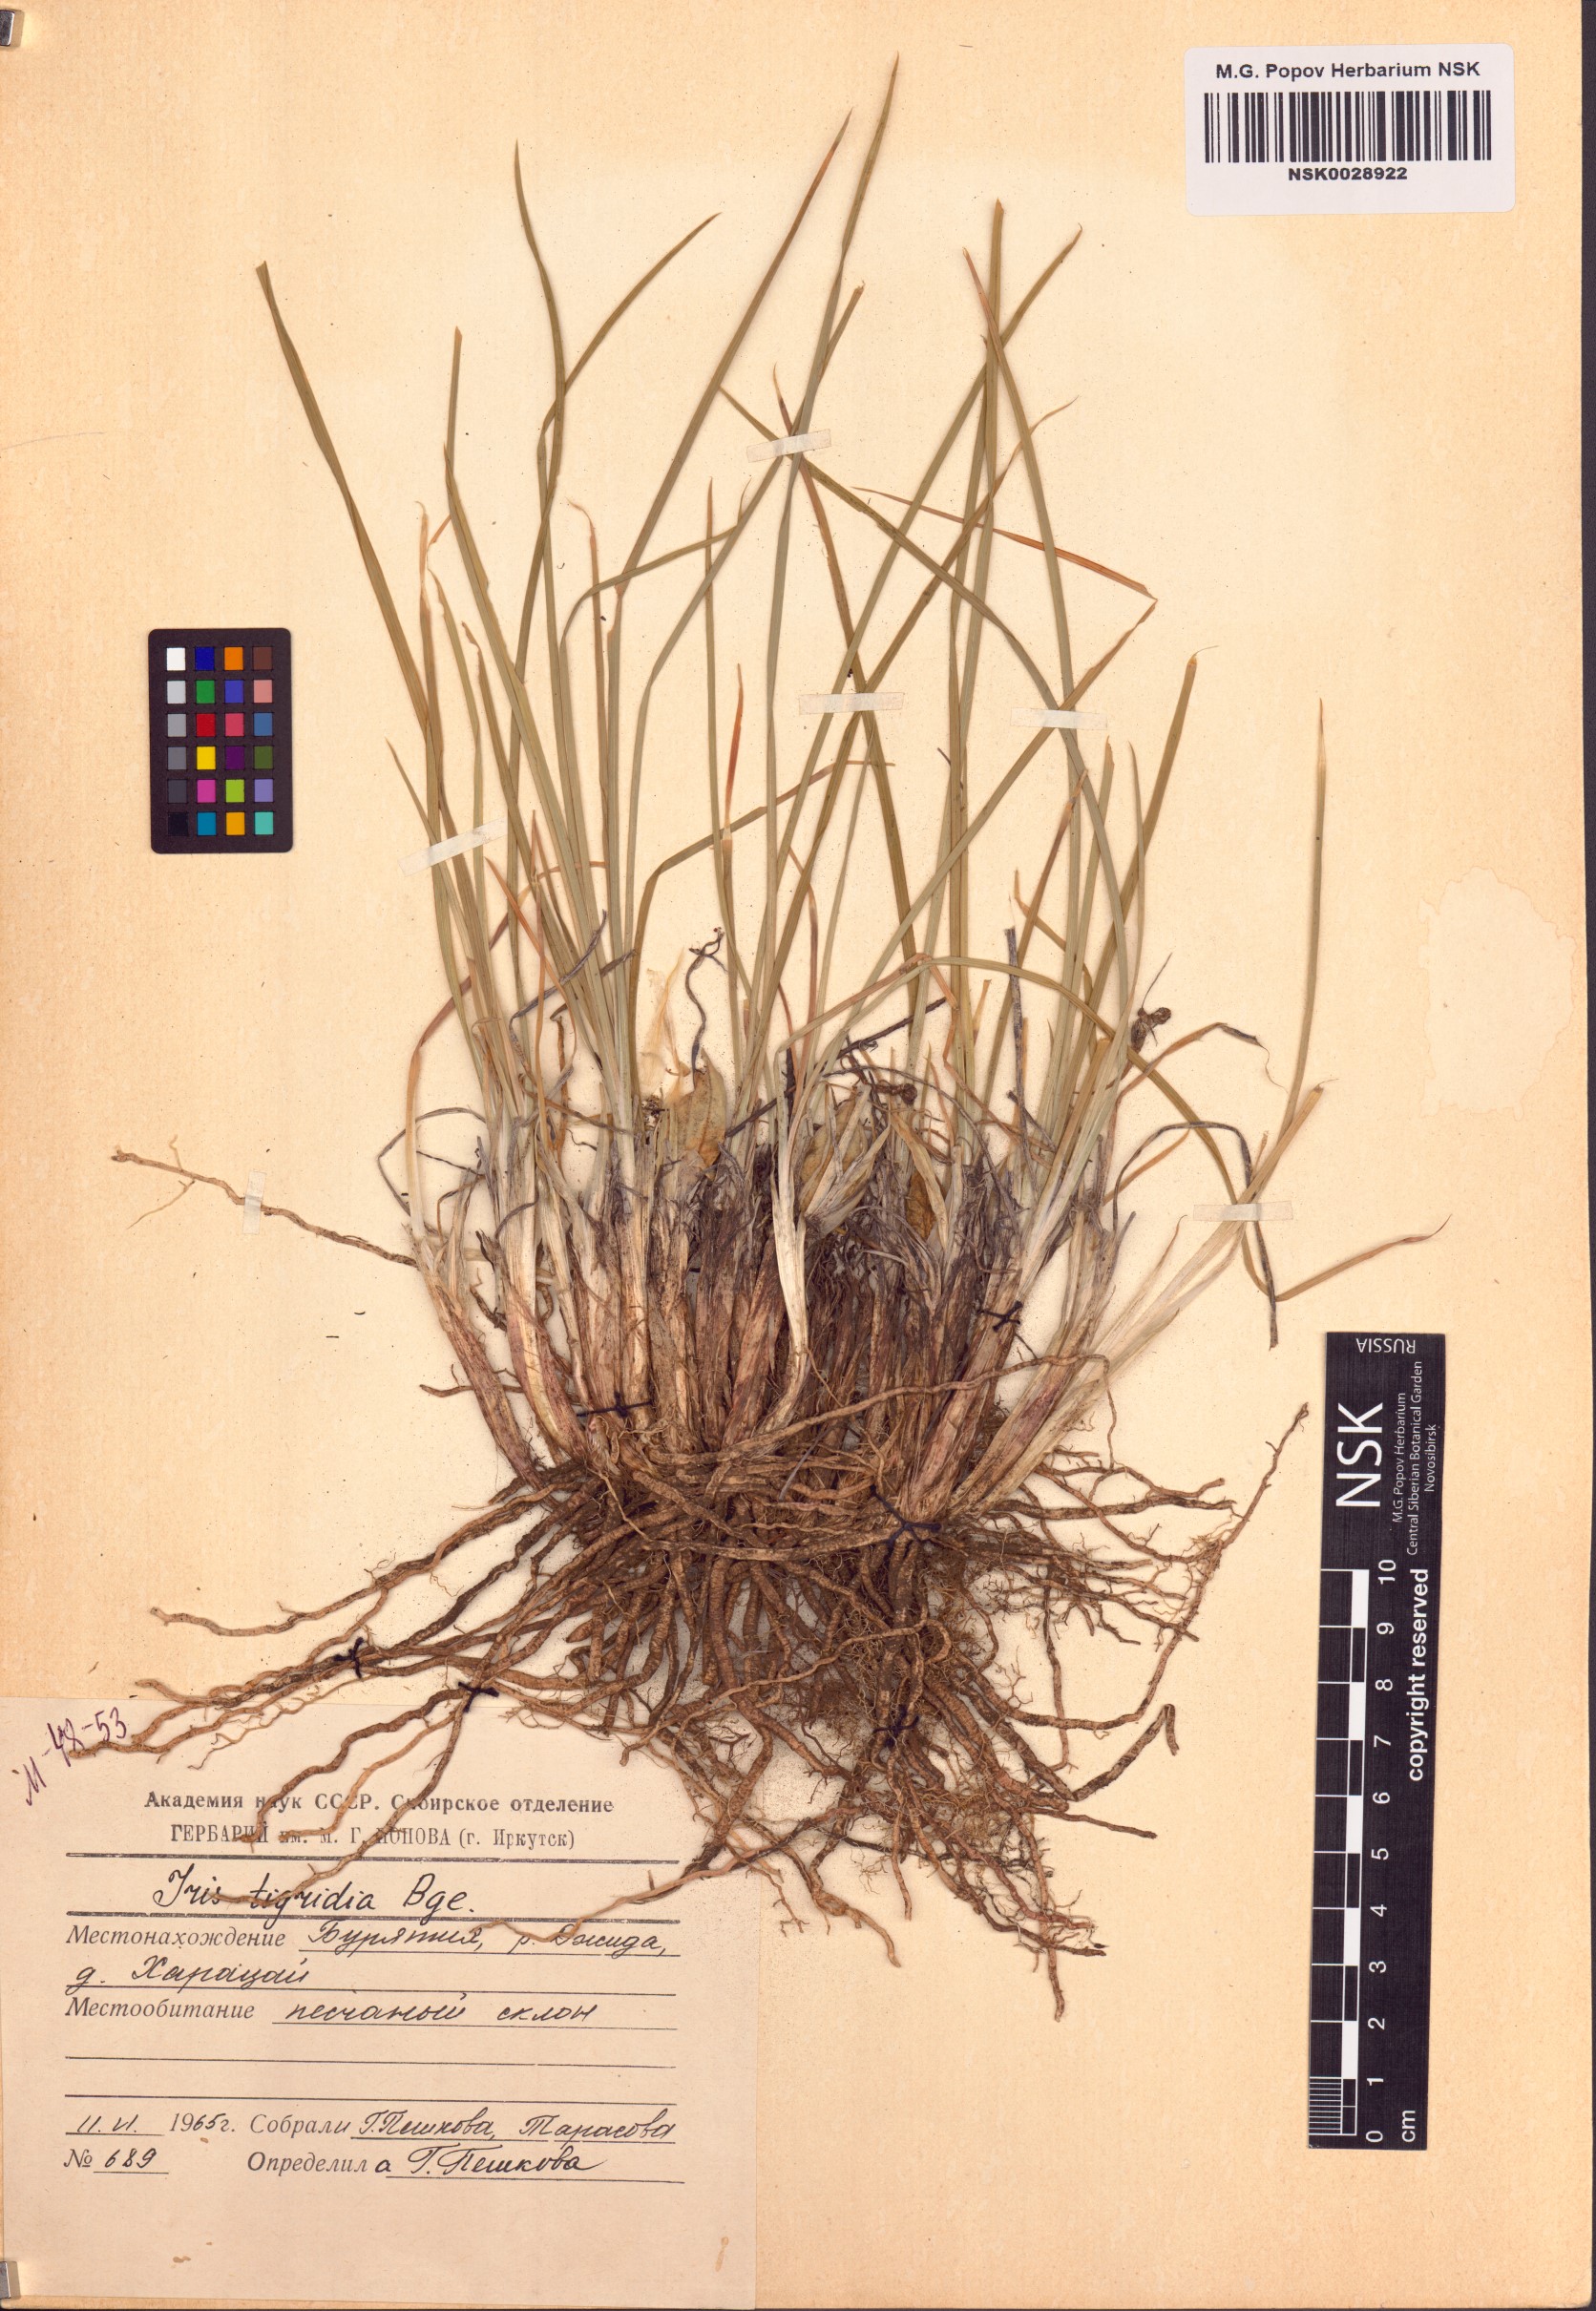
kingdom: Plantae
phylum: Tracheophyta
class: Liliopsida
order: Asparagales
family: Iridaceae
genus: Iris
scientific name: Iris tigridia
